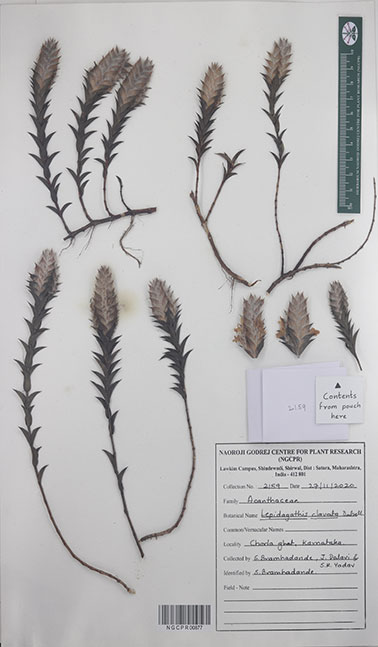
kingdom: Plantae
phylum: Tracheophyta
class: Magnoliopsida
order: Lamiales
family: Acanthaceae
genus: Lepidagathis
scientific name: Lepidagathis clavata
